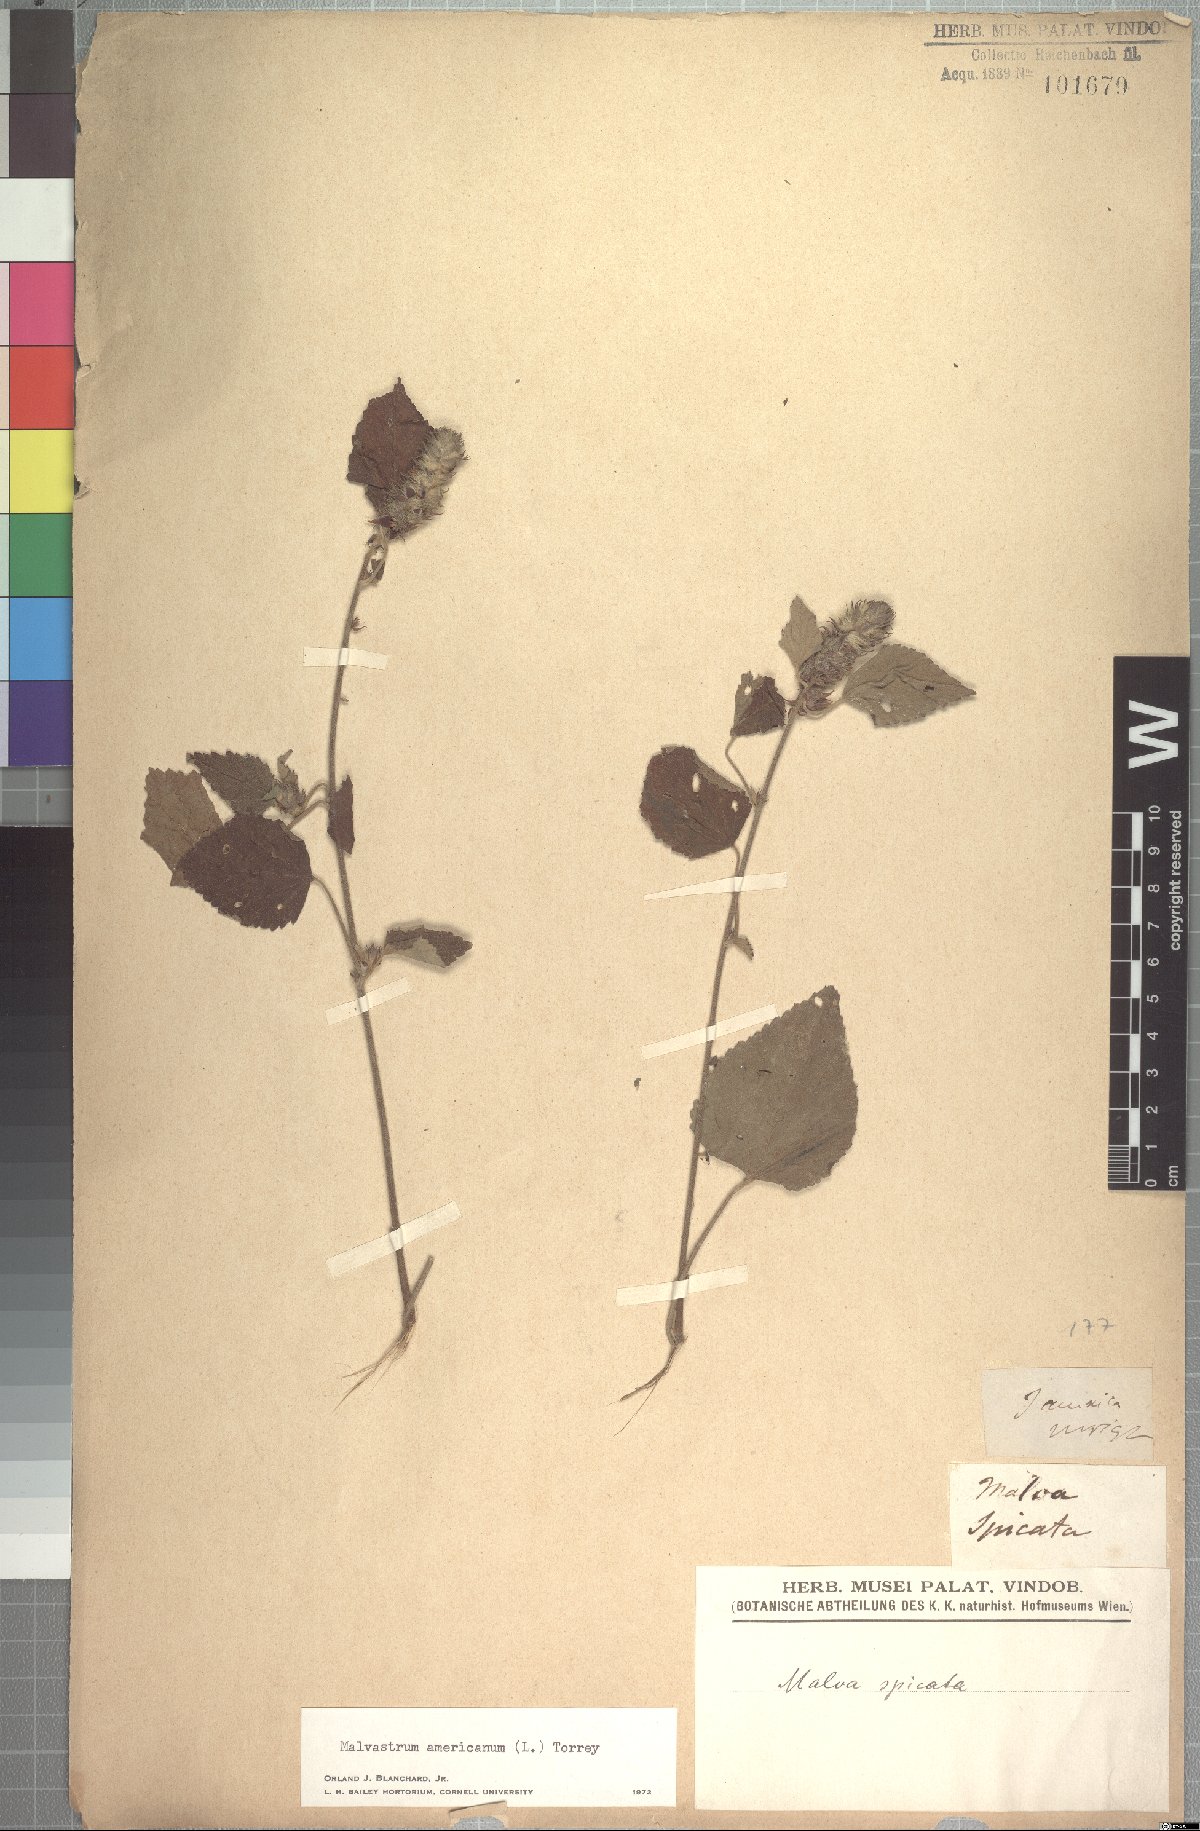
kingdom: Plantae
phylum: Tracheophyta
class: Magnoliopsida
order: Malvales
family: Malvaceae
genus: Malvastrum
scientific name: Malvastrum americanum
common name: Spiked malvastrum
